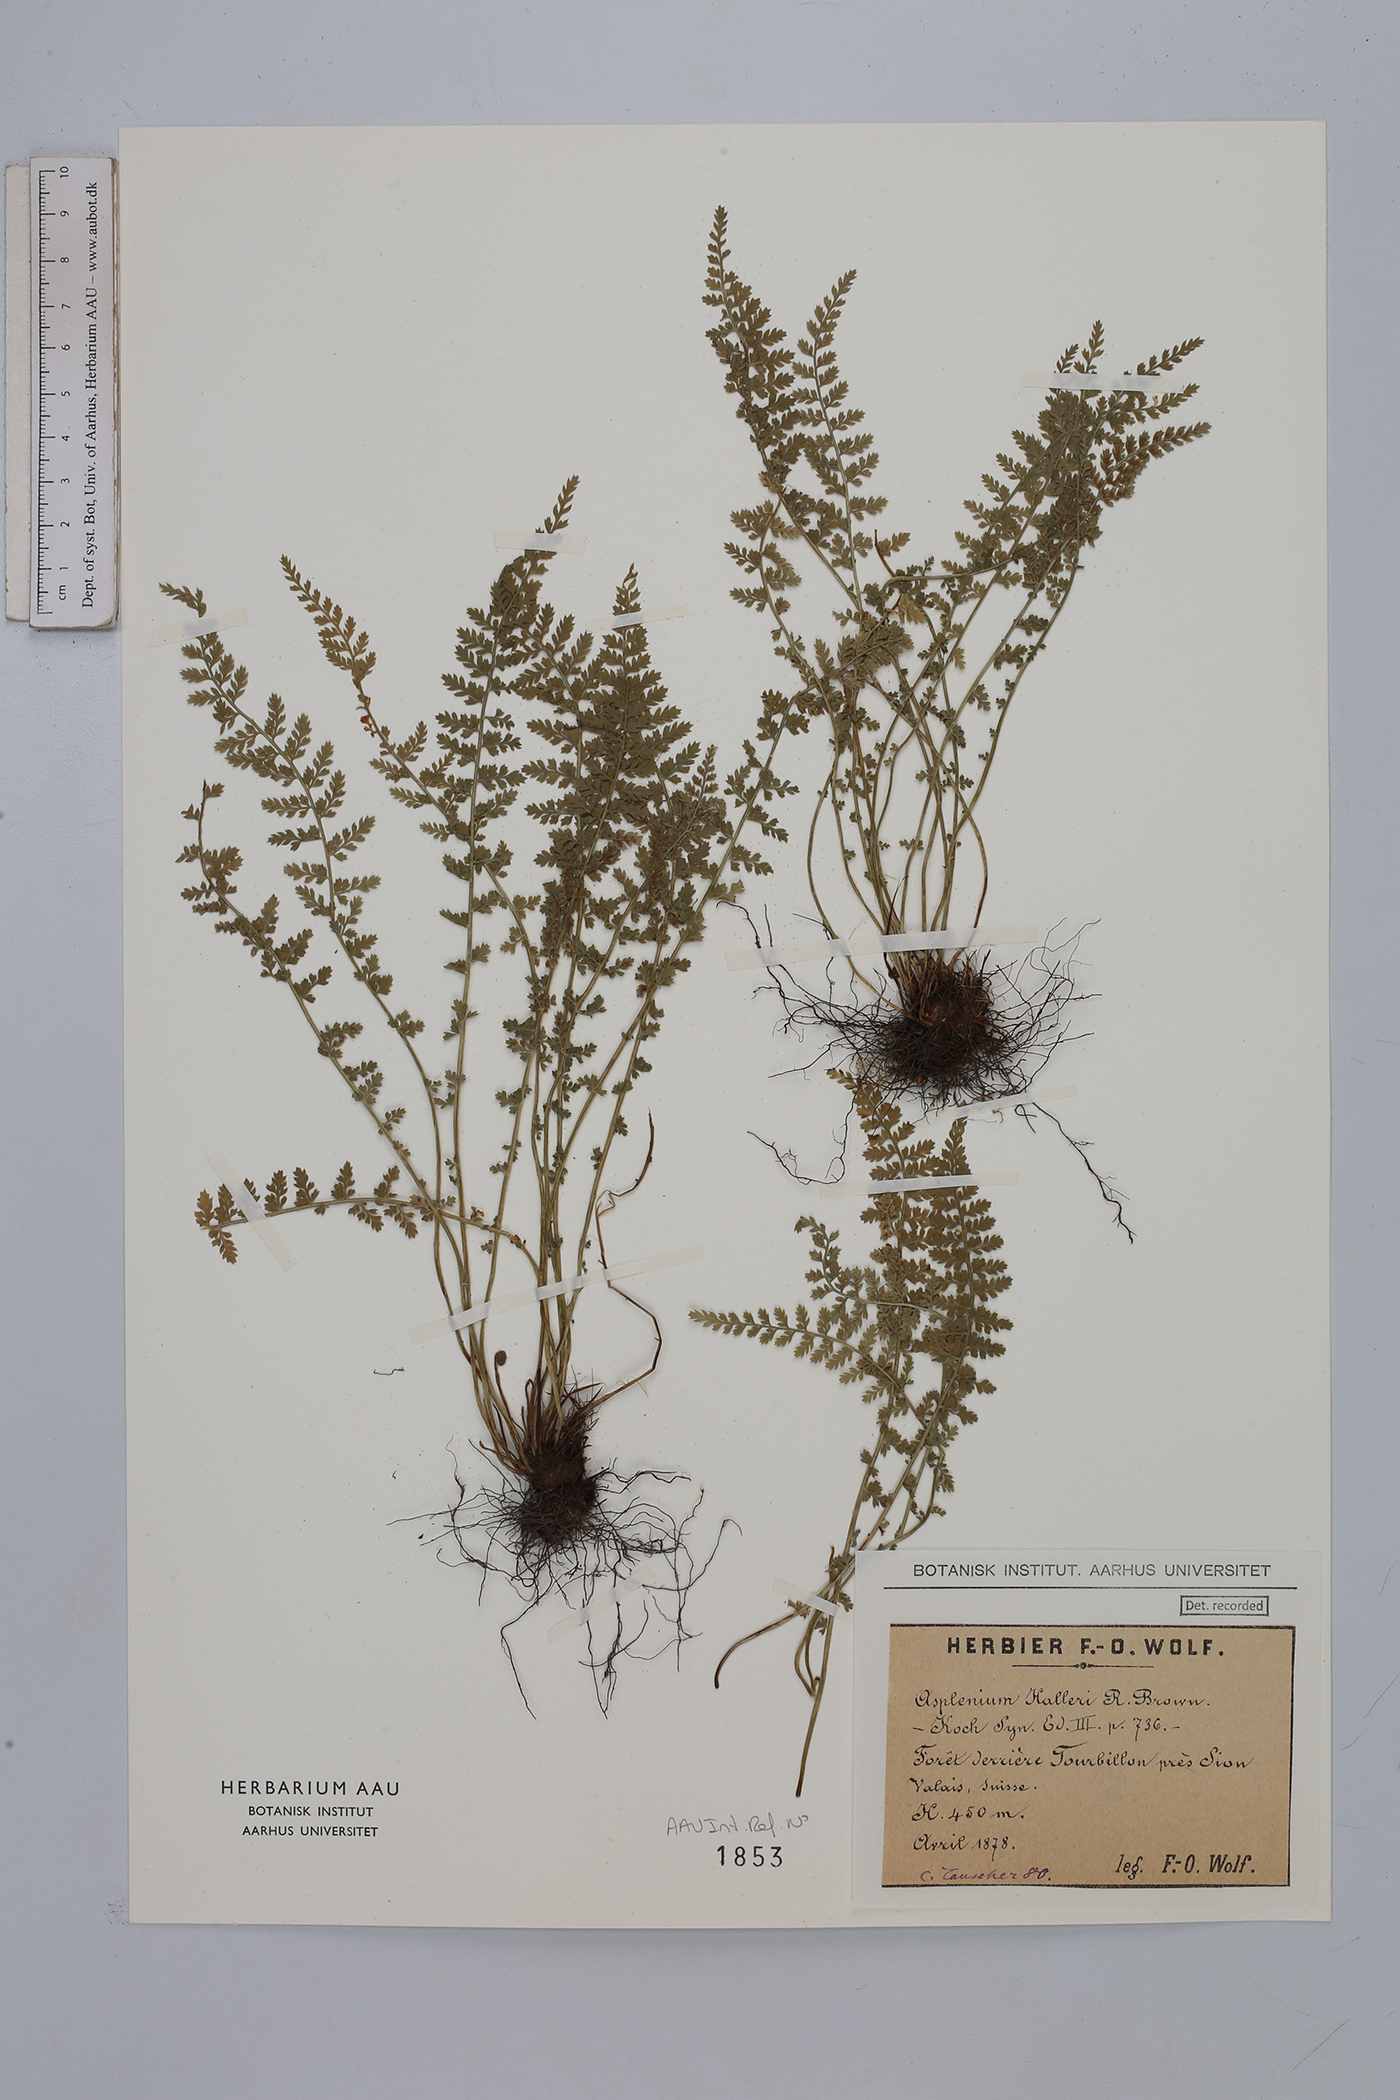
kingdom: Plantae
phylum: Tracheophyta
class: Polypodiopsida
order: Polypodiales
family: Aspleniaceae
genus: Asplenium
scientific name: Asplenium fontanum
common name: Fountain spleenwort
